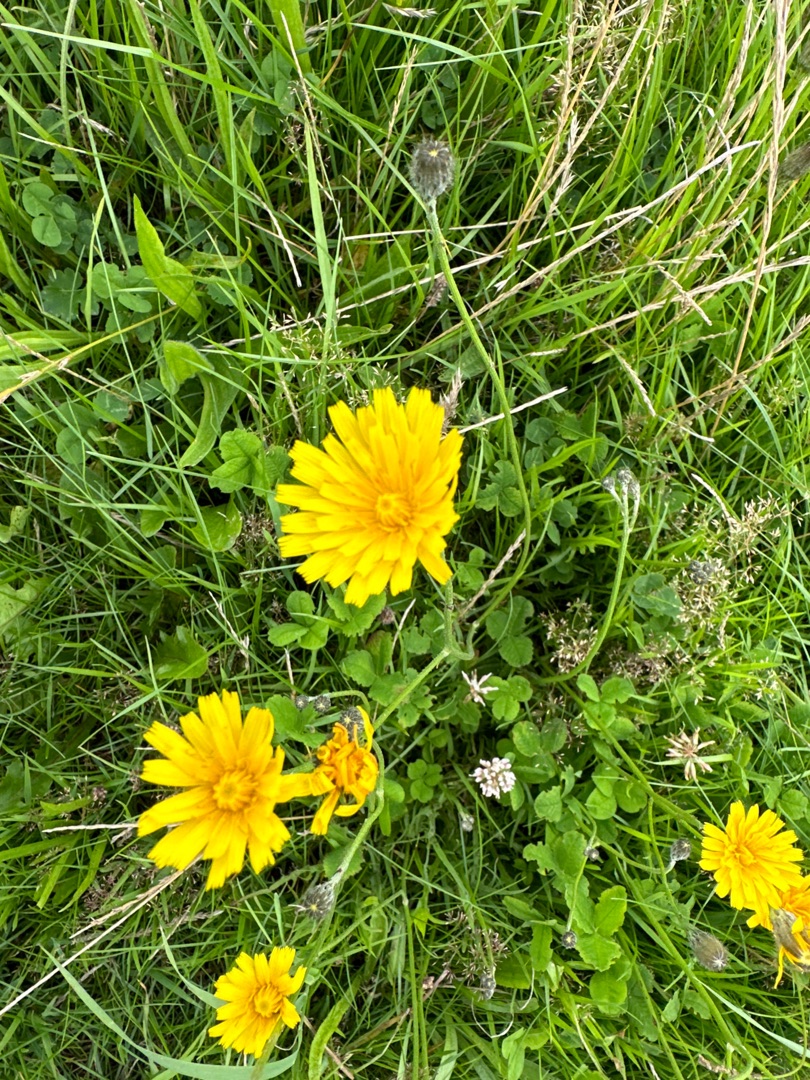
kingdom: Plantae
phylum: Tracheophyta
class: Magnoliopsida
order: Asterales
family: Asteraceae
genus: Scorzoneroides
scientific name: Scorzoneroides autumnalis
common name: Høst-borst
